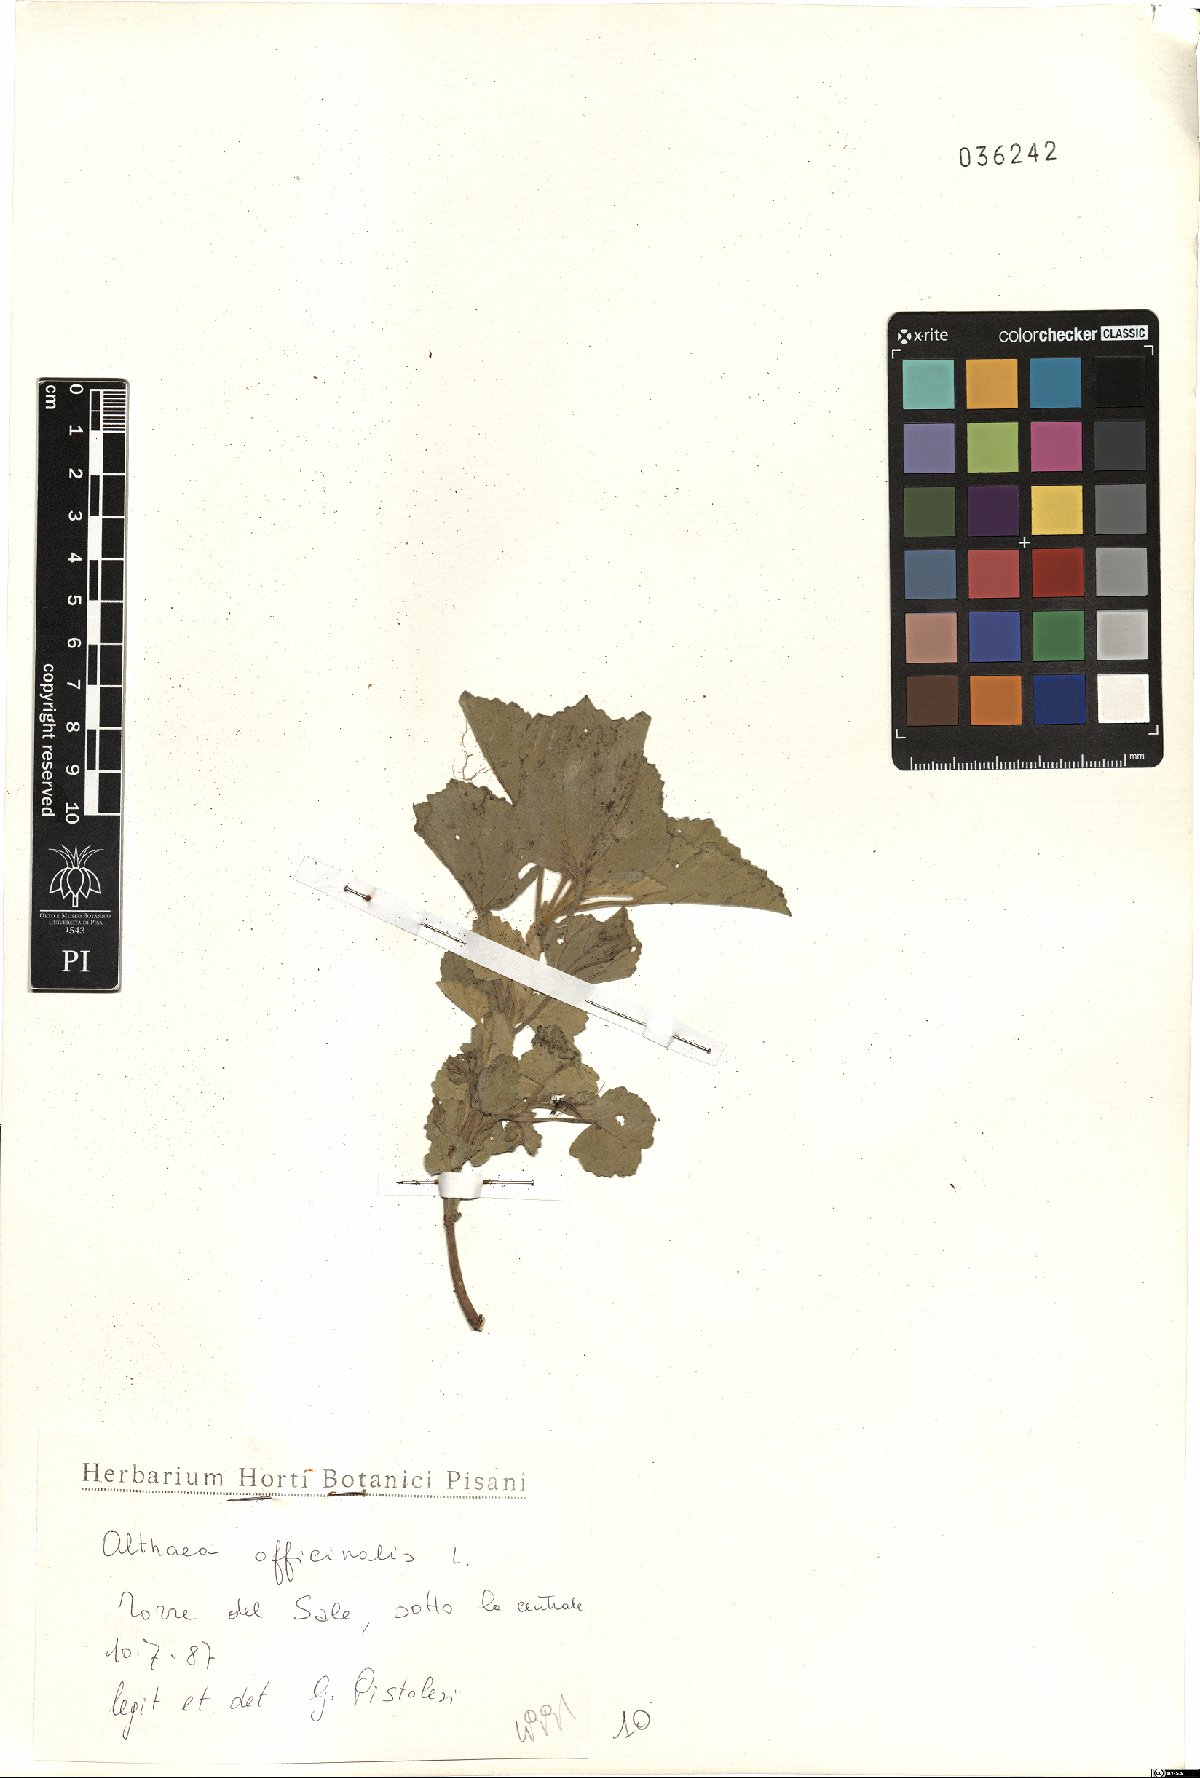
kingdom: Plantae
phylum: Tracheophyta
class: Magnoliopsida
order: Malvales
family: Malvaceae
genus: Althaea
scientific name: Althaea officinalis
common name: Marsh-mallow
